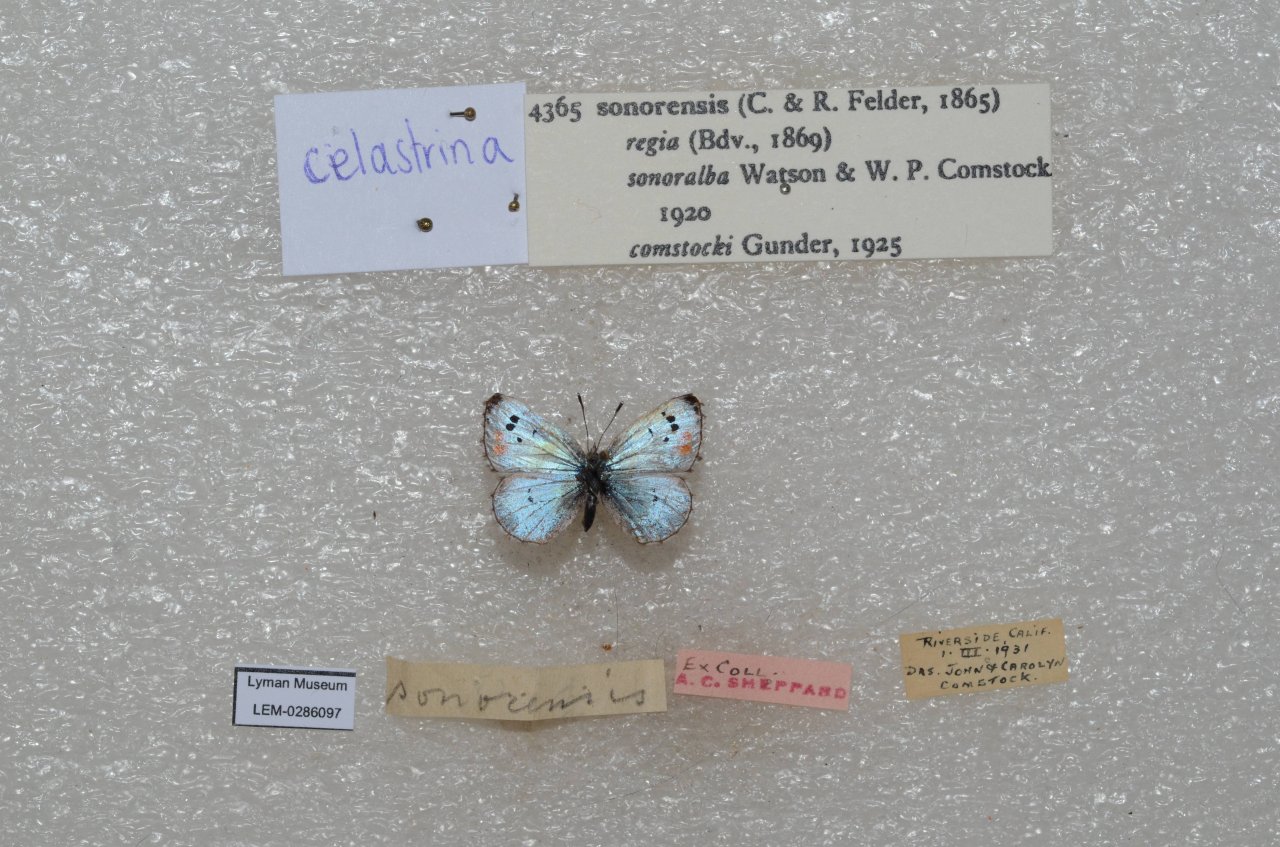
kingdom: Animalia
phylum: Arthropoda
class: Insecta
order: Lepidoptera
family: Lycaenidae
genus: Philotes
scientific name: Philotes sonorensis
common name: Sonoran Blue
